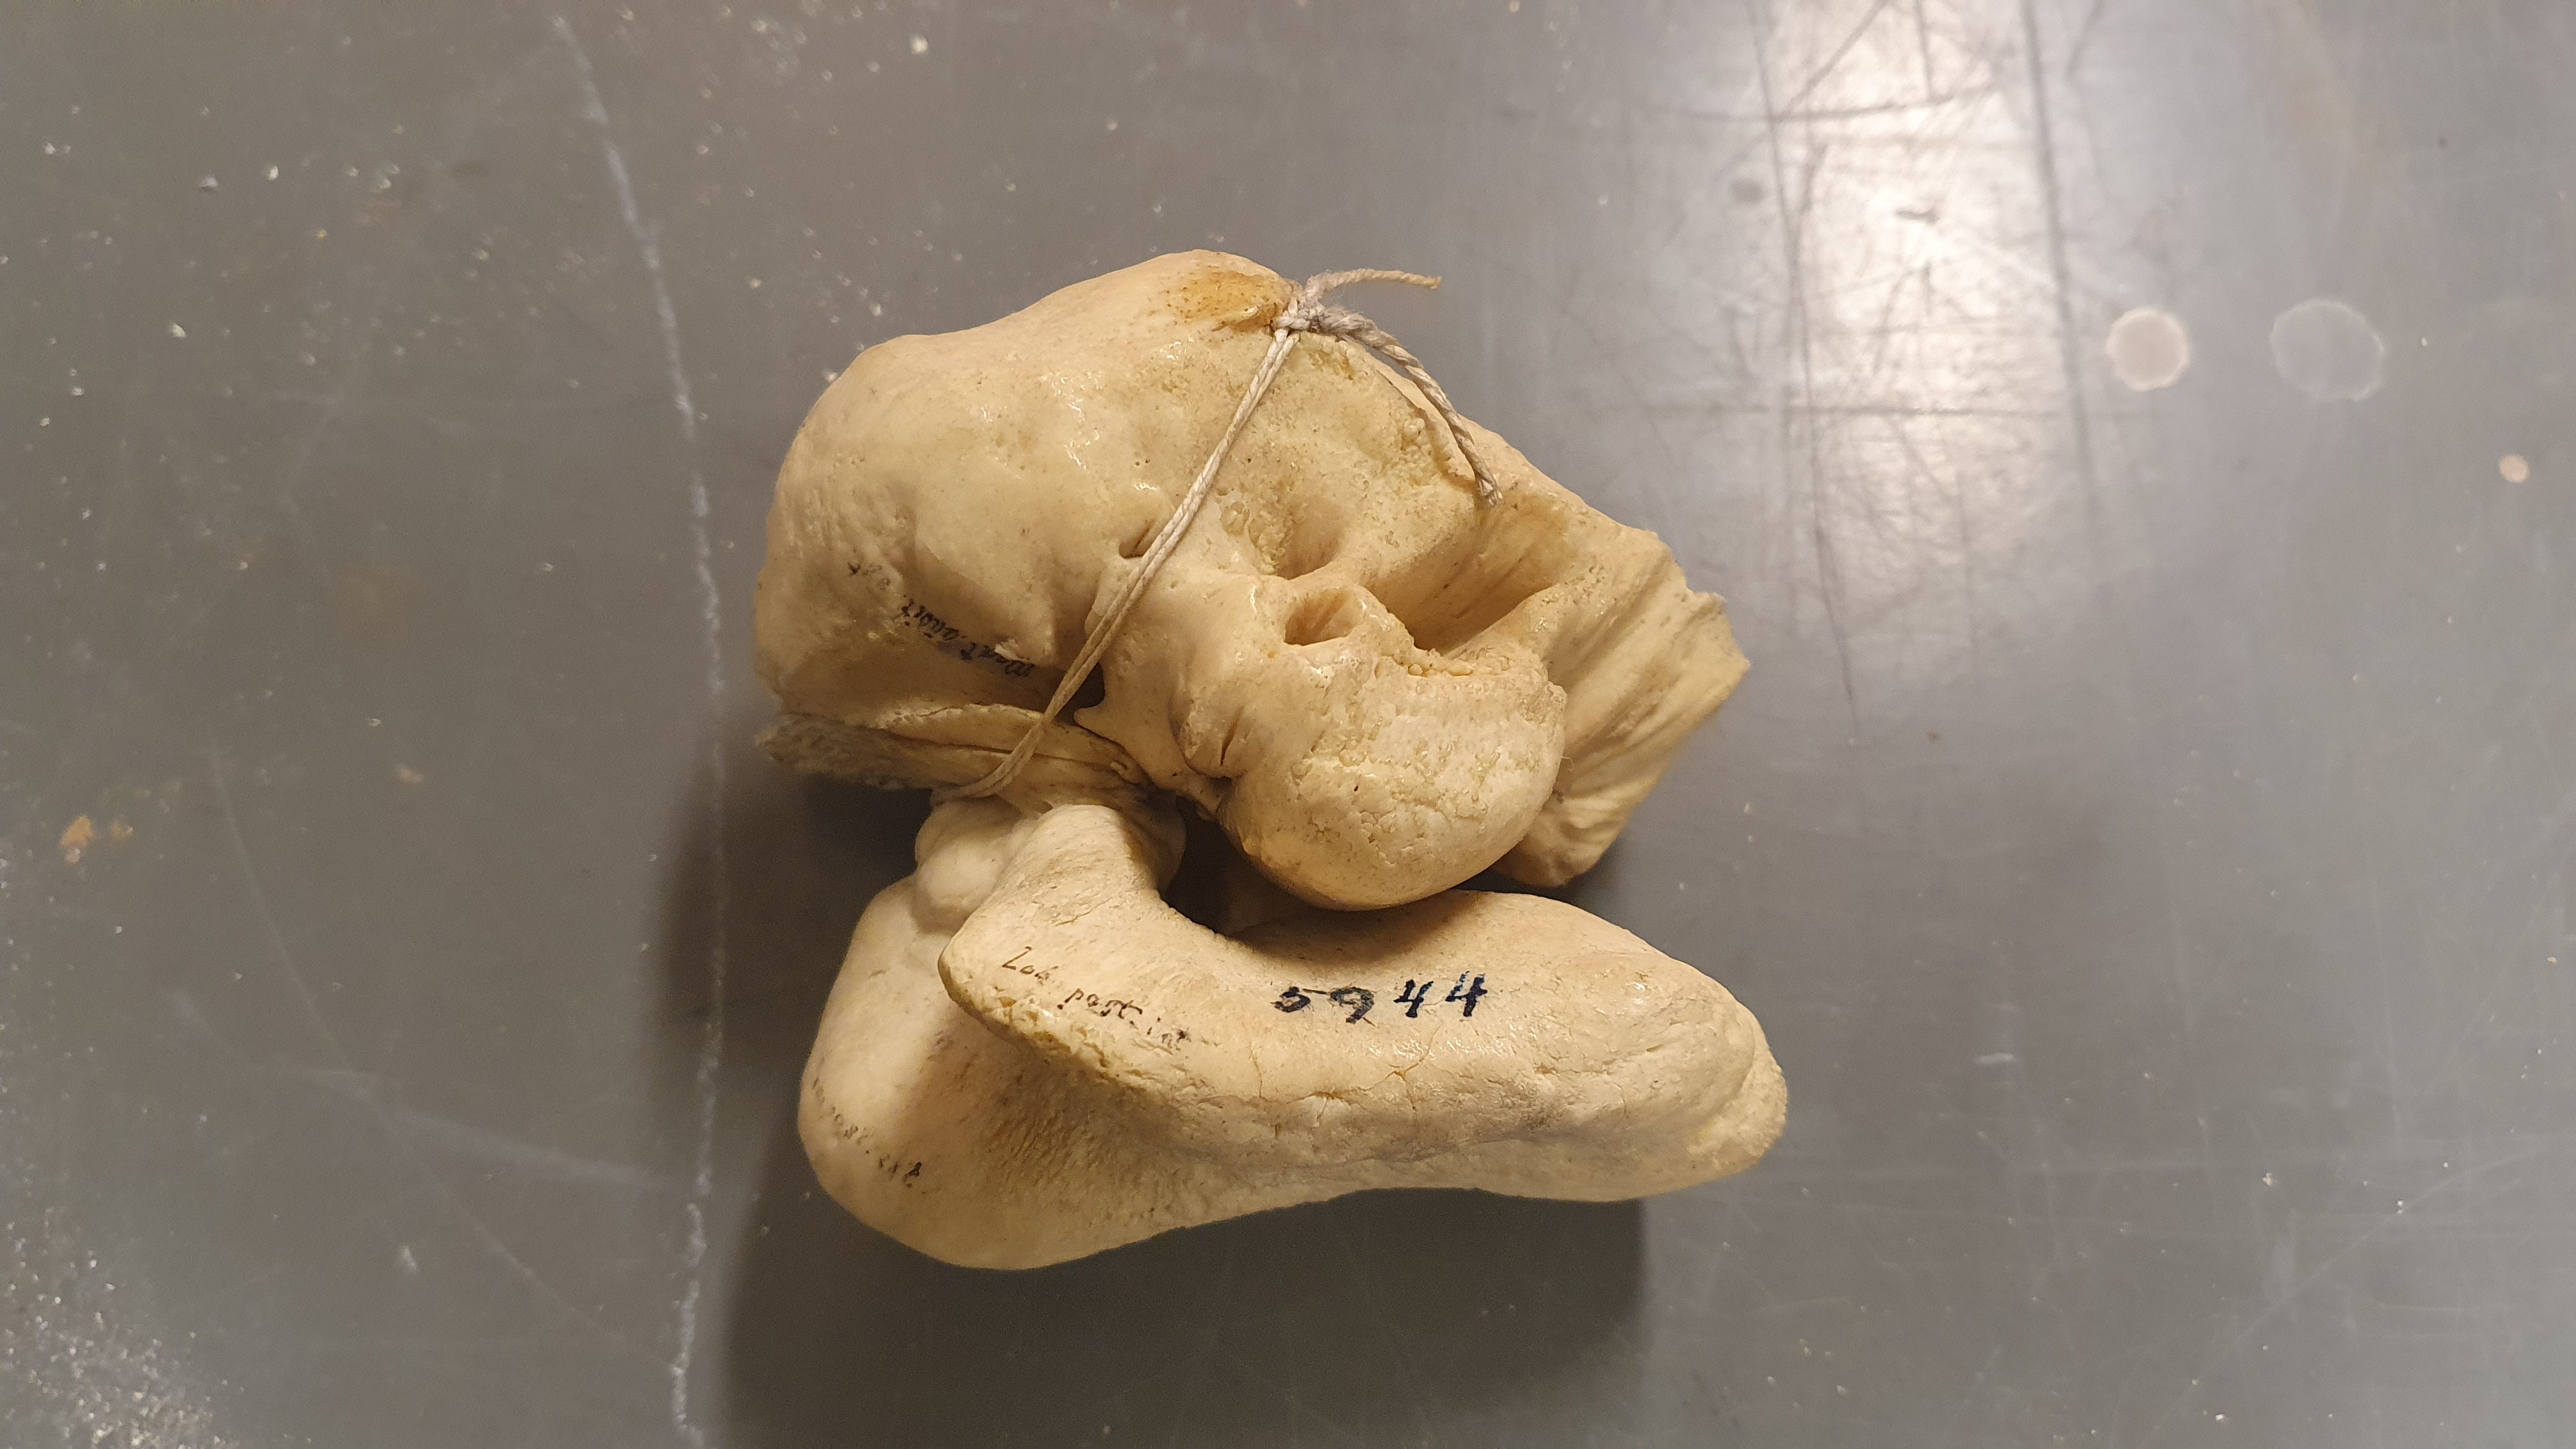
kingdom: Animalia
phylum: Chordata
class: Mammalia
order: Cetacea
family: Delphinidae
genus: Orcinus
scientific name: Orcinus orca
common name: Killer whale
